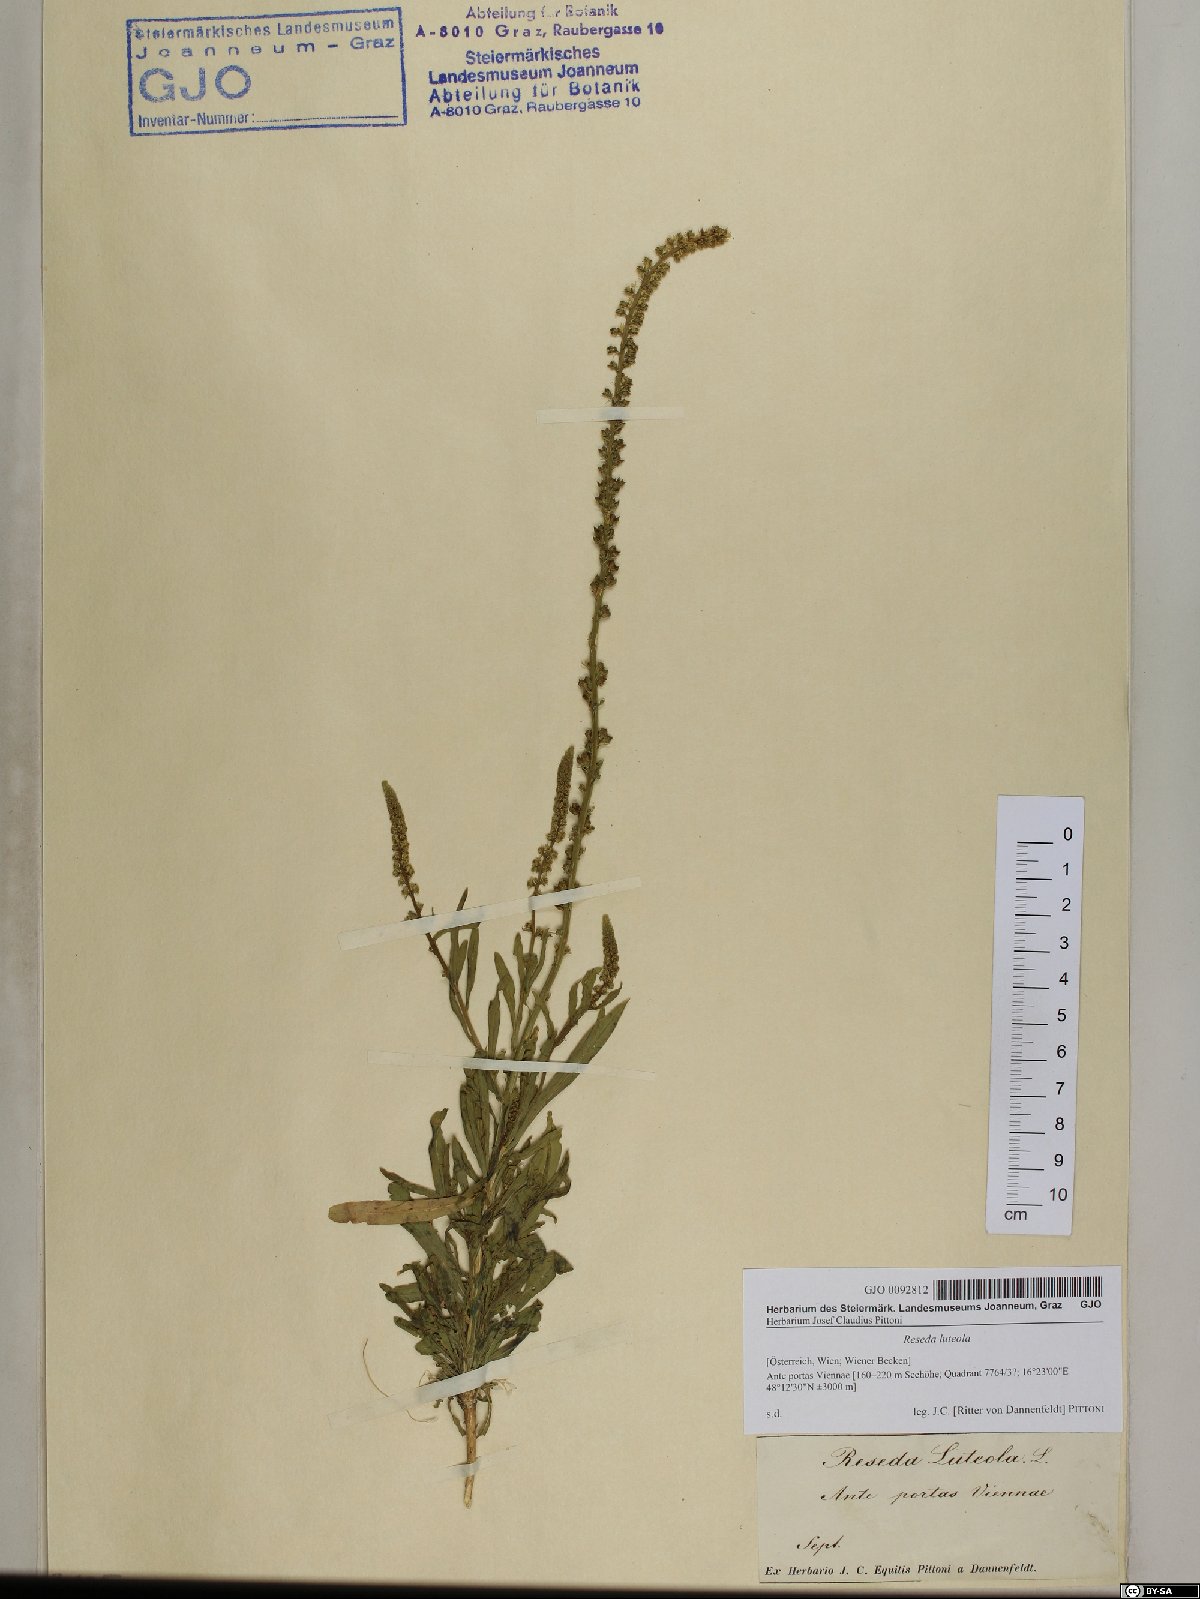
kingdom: Plantae
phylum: Tracheophyta
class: Magnoliopsida
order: Brassicales
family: Resedaceae
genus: Reseda
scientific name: Reseda luteola
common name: Weld
